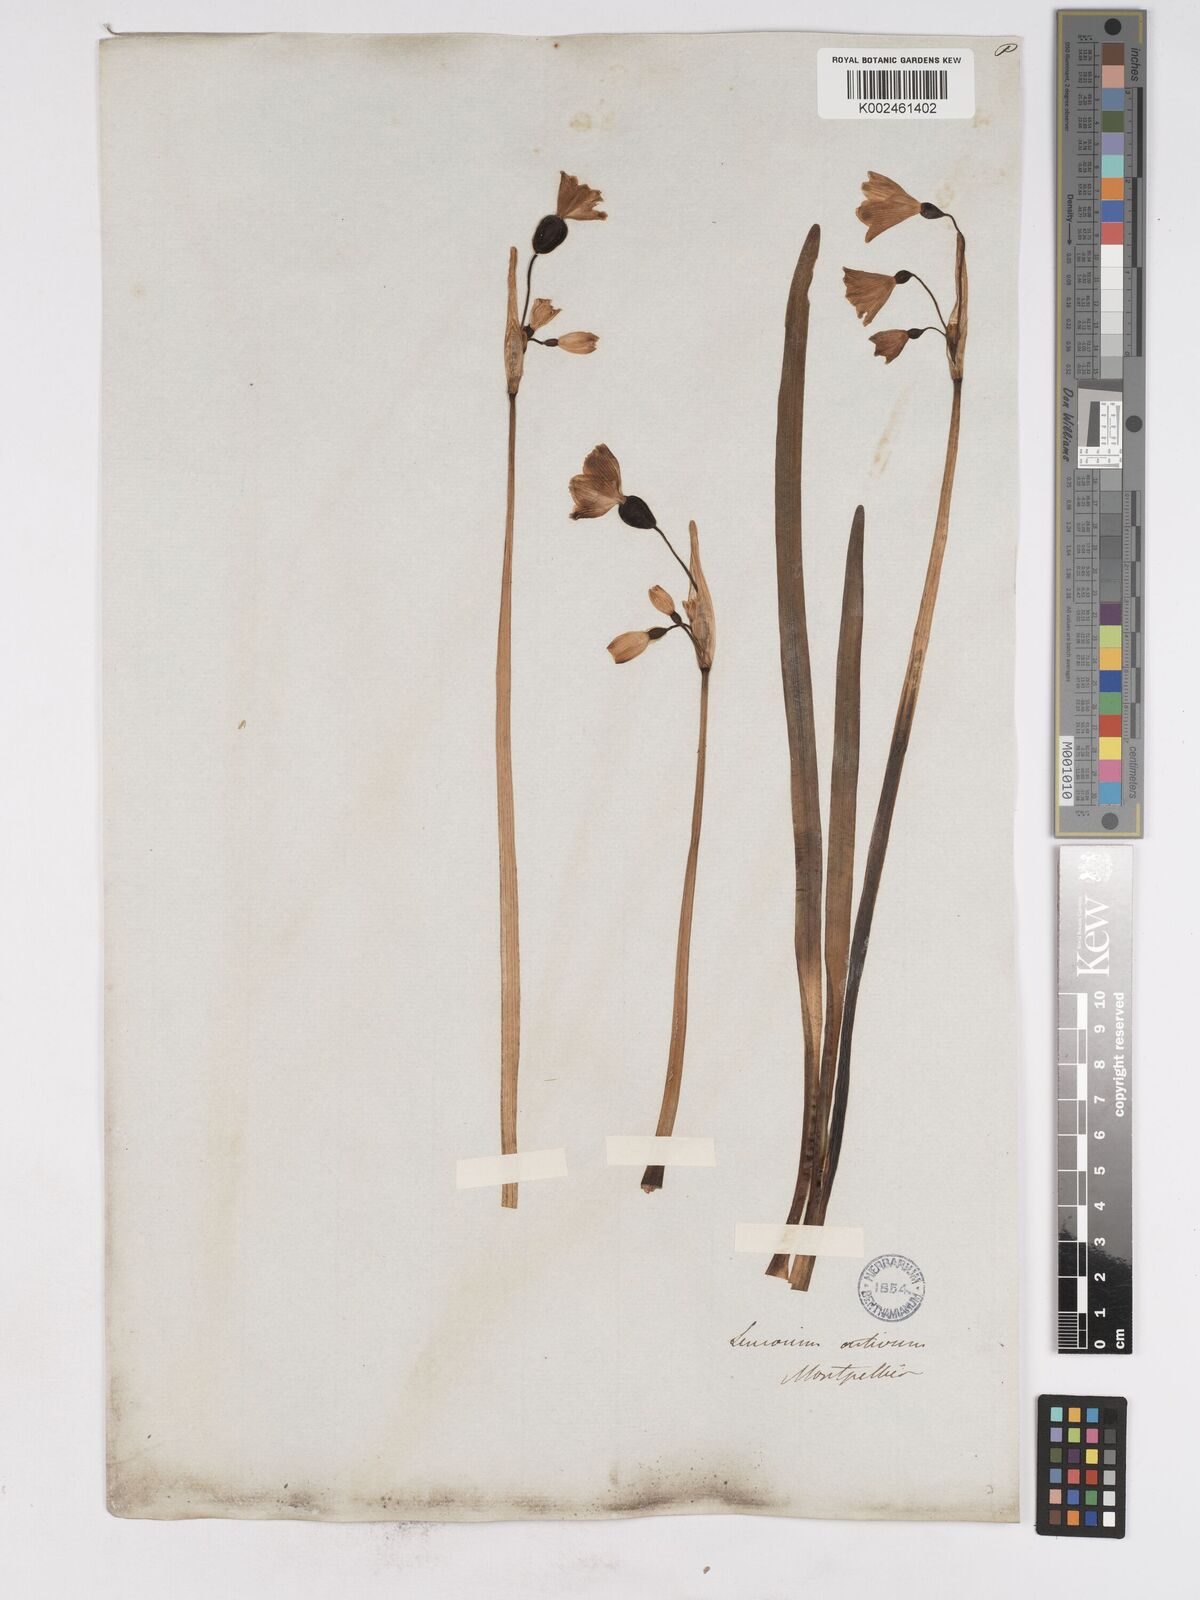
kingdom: Plantae
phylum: Tracheophyta
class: Liliopsida
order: Asparagales
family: Amaryllidaceae
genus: Leucojum
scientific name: Leucojum aestivum
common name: Summer snowflake
